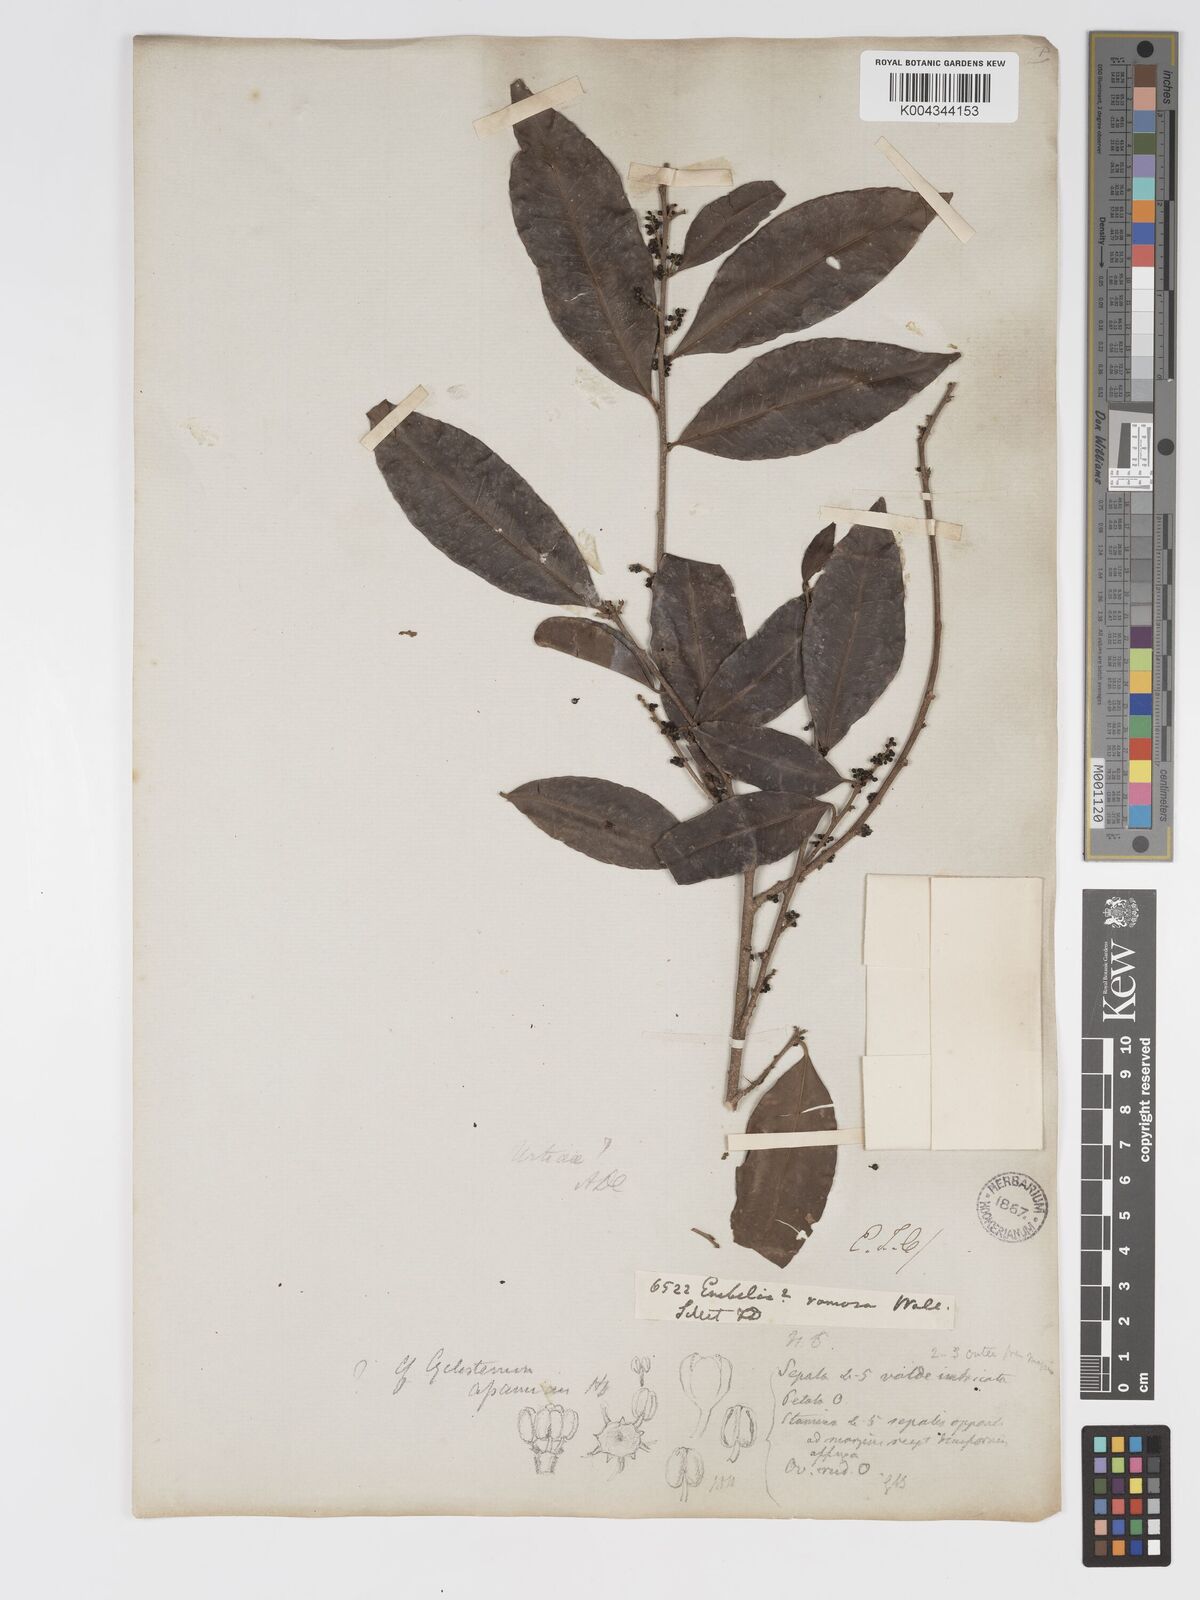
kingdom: Plantae
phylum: Tracheophyta
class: Magnoliopsida
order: Malpighiales
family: Putranjivaceae
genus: Drypetes
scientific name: Drypetes jaintensis
